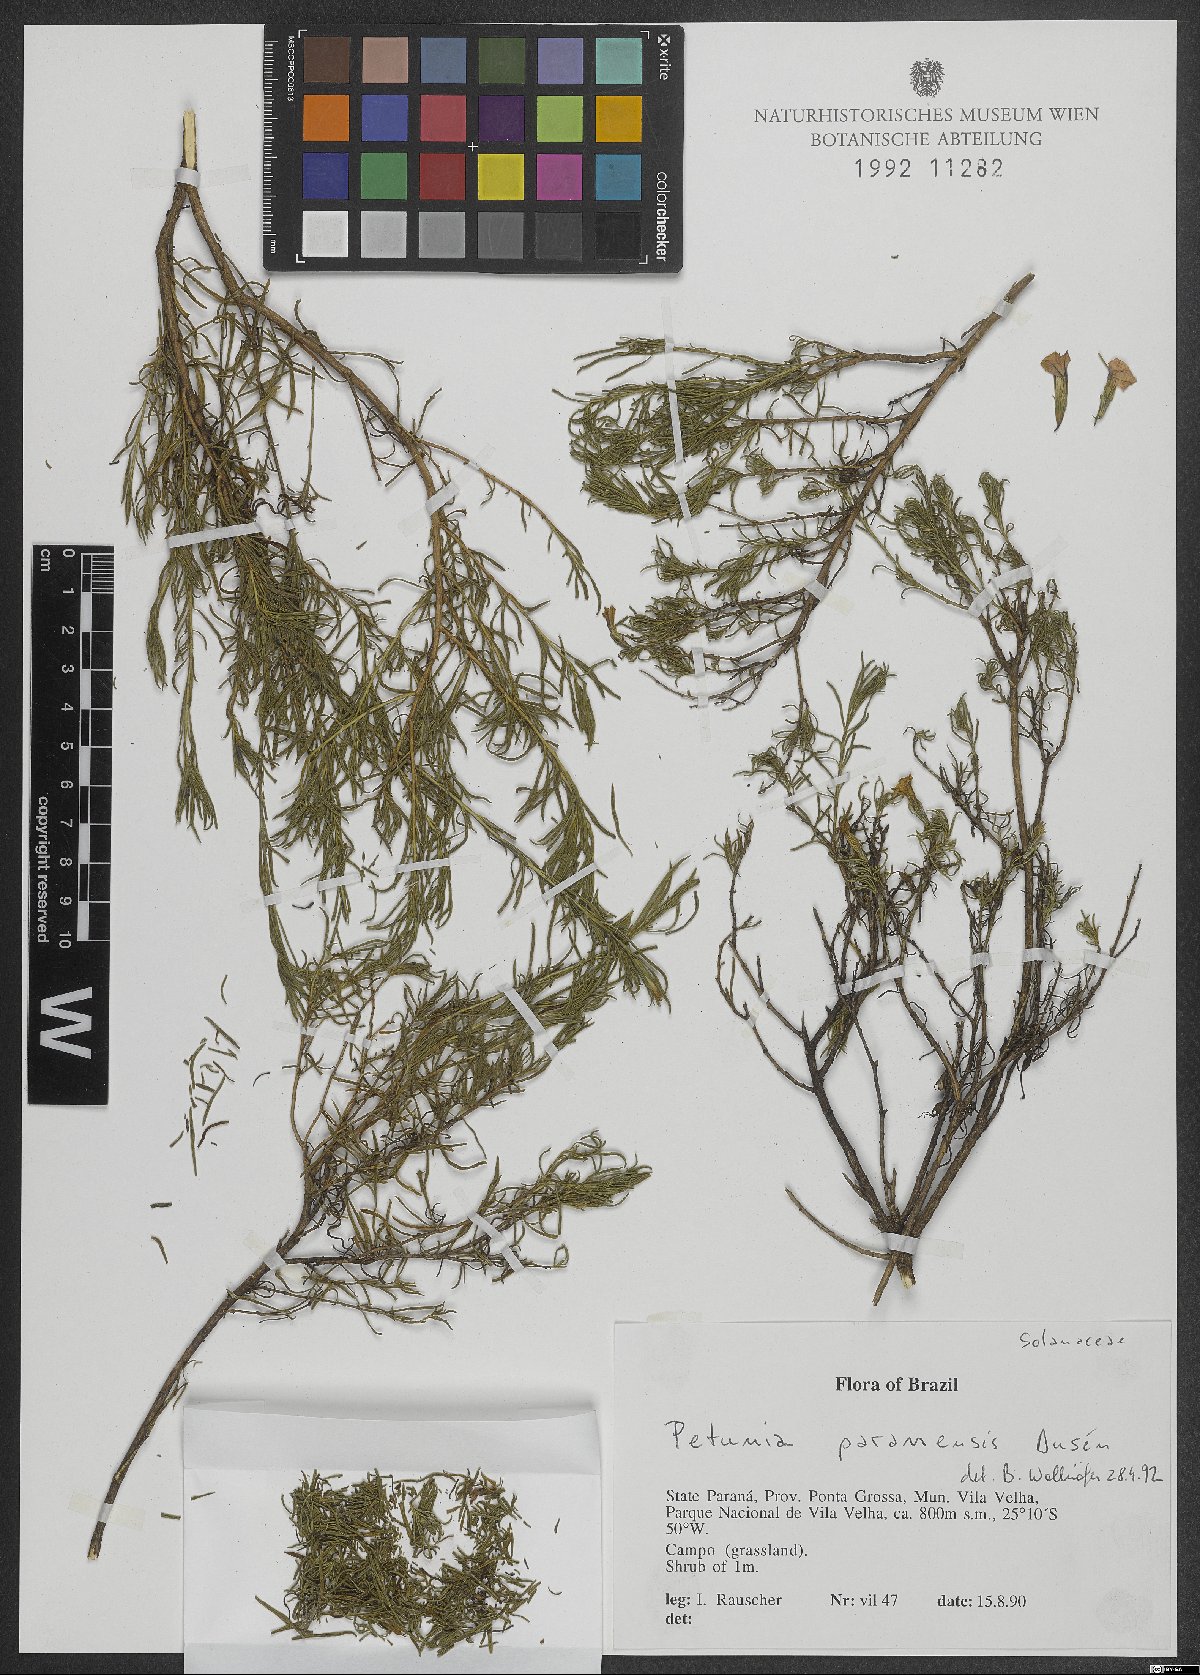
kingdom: Plantae
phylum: Tracheophyta
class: Magnoliopsida
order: Solanales
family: Solanaceae
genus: Calibrachoa
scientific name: Calibrachoa paranensis
